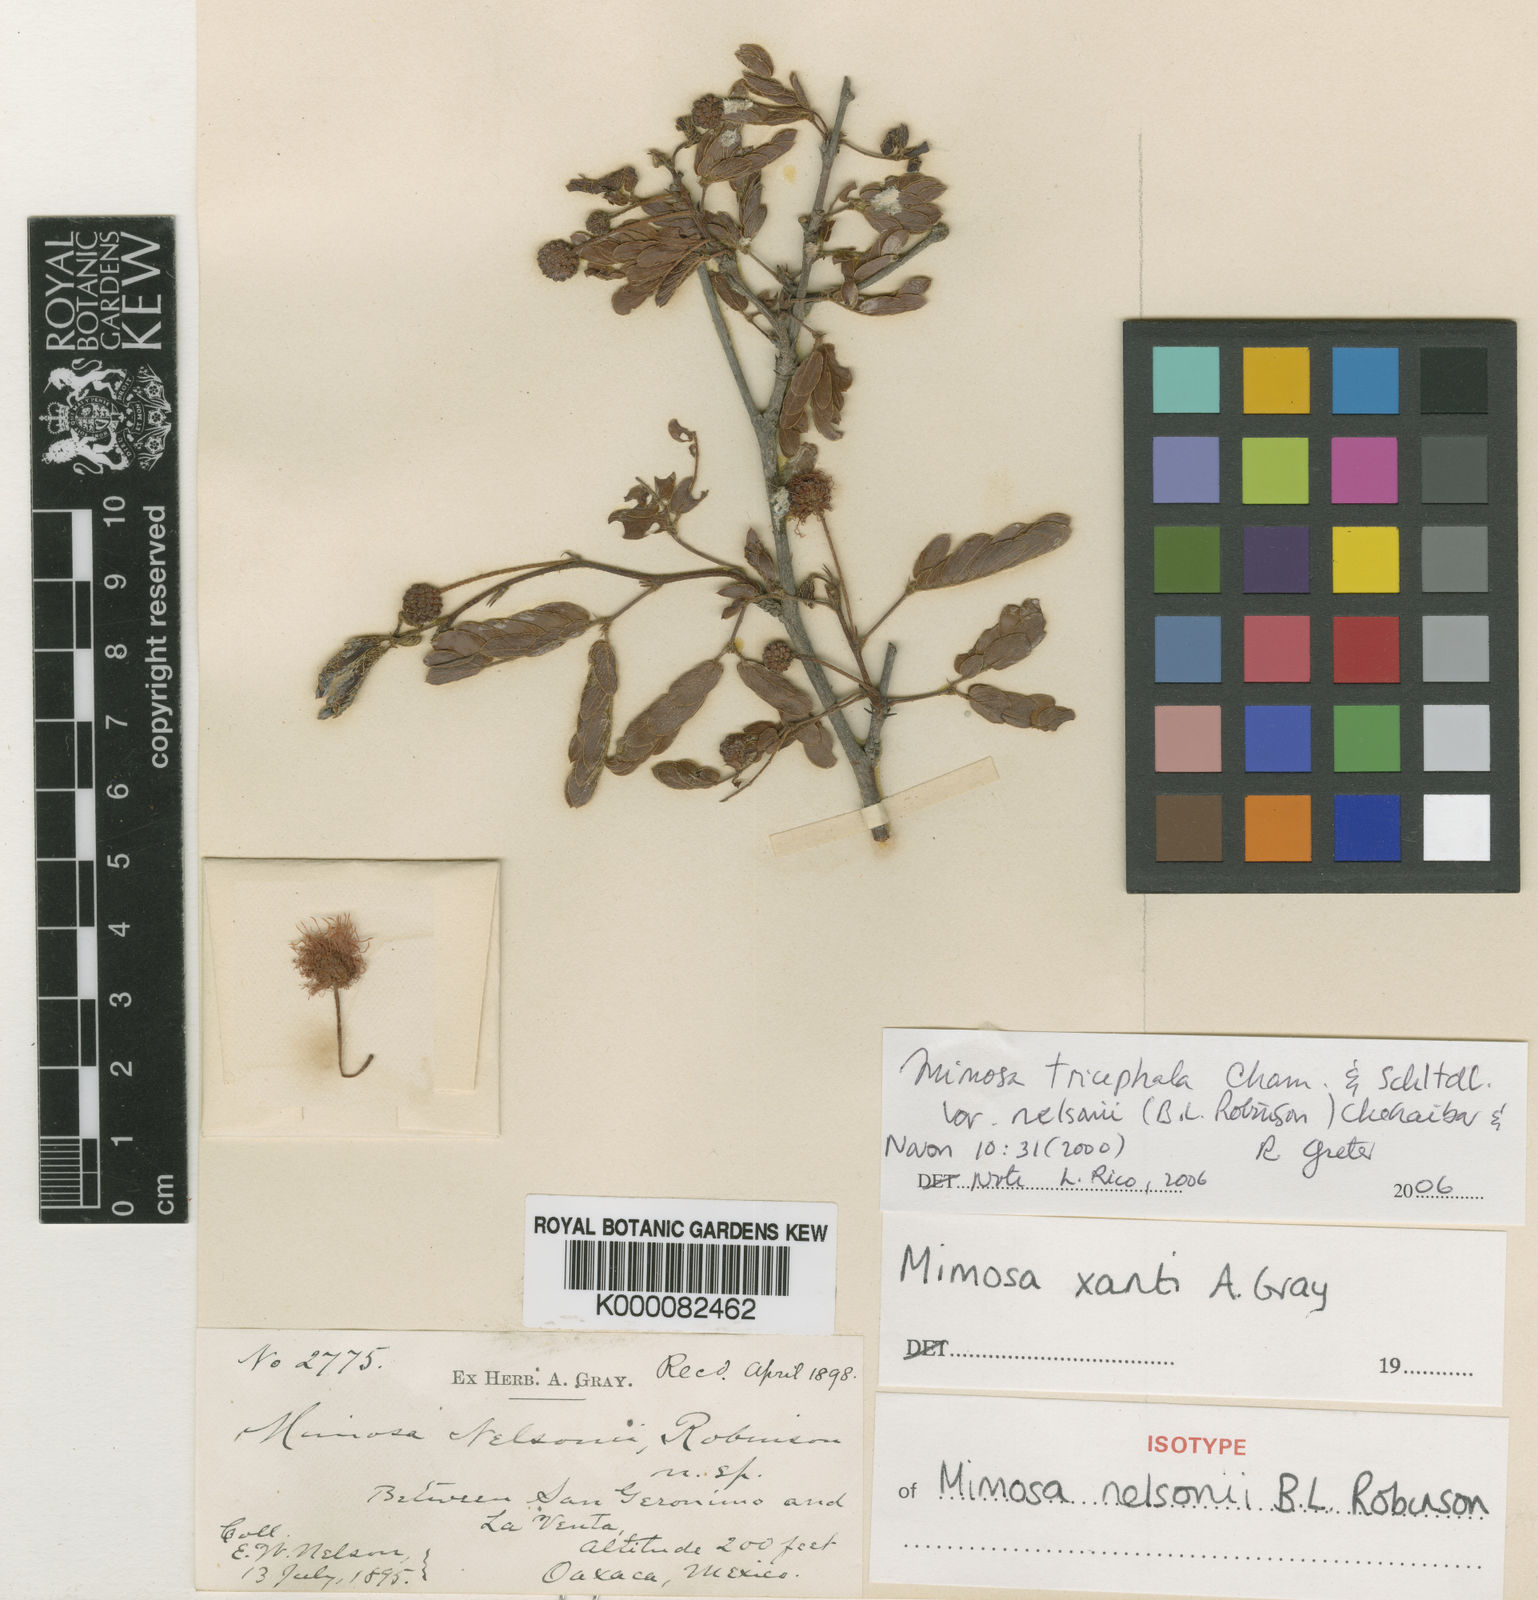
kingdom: Plantae
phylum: Tracheophyta
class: Magnoliopsida
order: Fabales
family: Fabaceae
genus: Mimosa
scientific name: Mimosa tricephala
